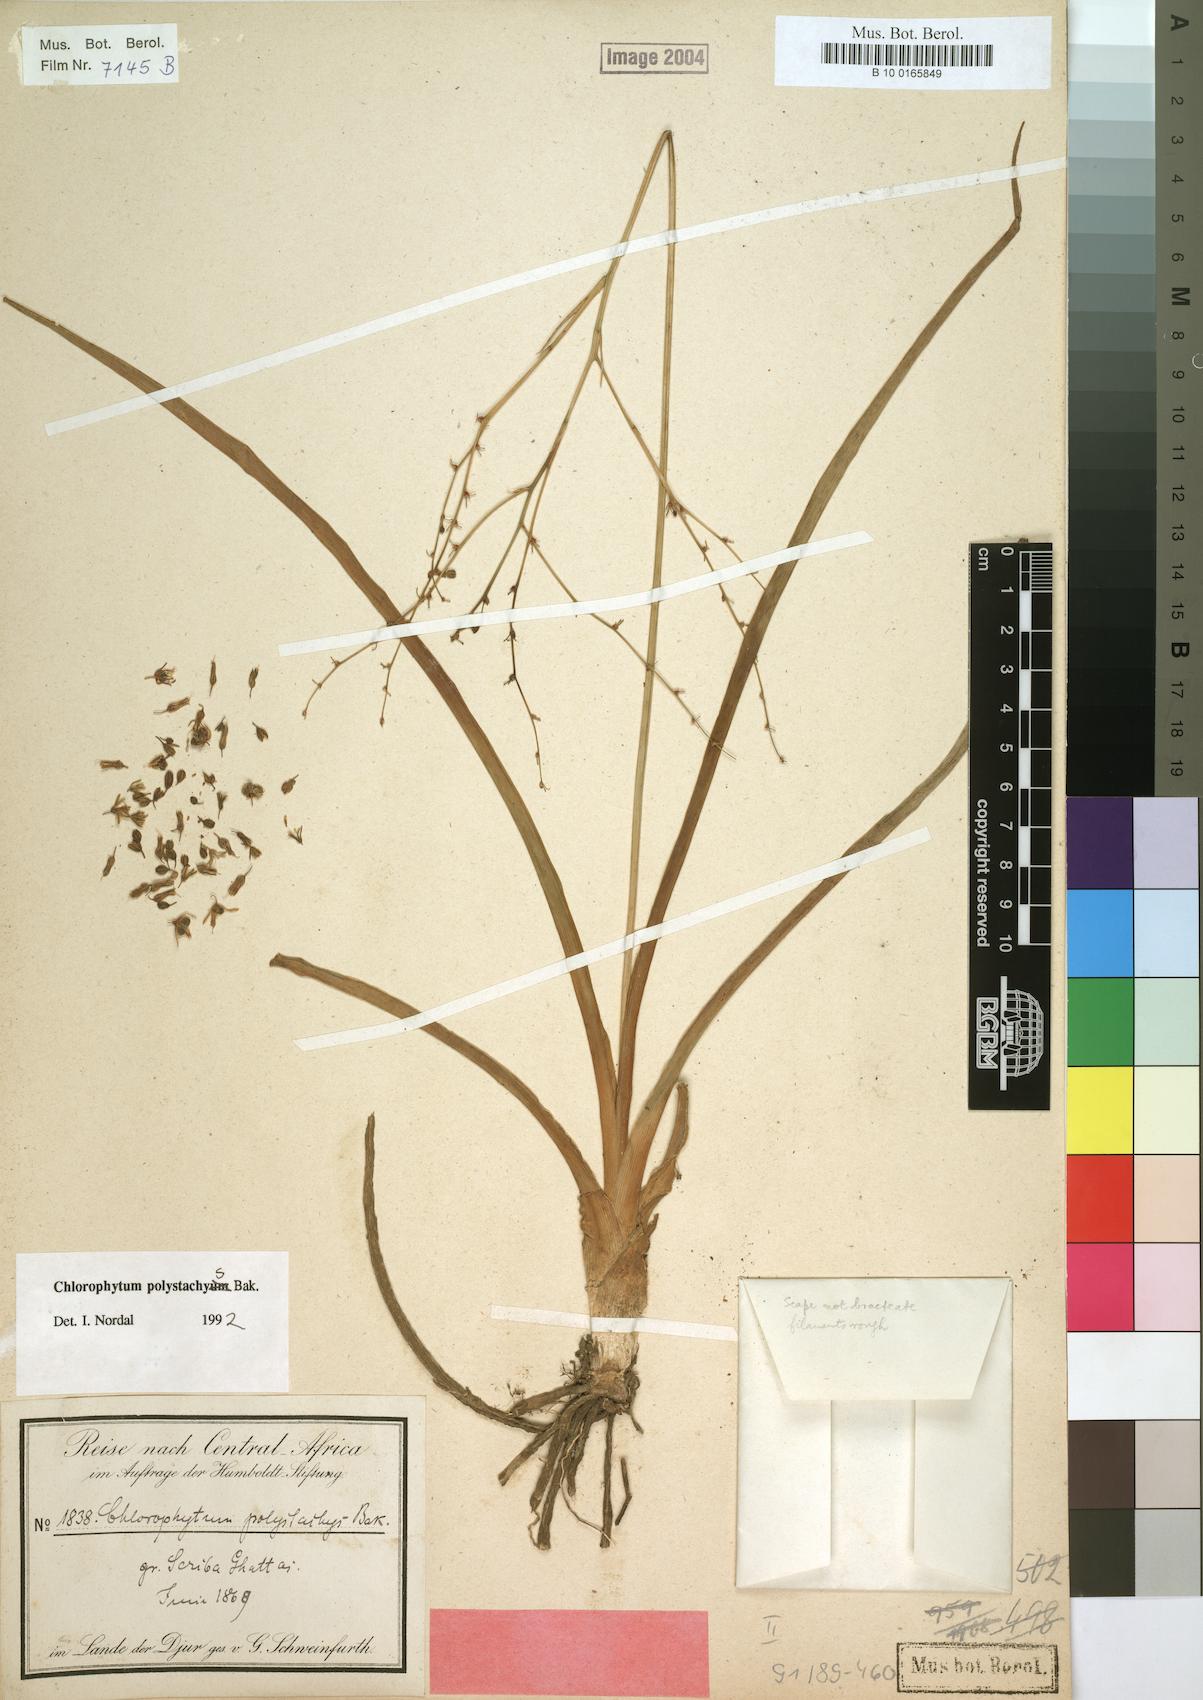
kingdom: Plantae
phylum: Tracheophyta
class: Liliopsida
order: Asparagales
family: Asparagaceae
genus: Chlorophytum
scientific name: Chlorophytum polystachys
